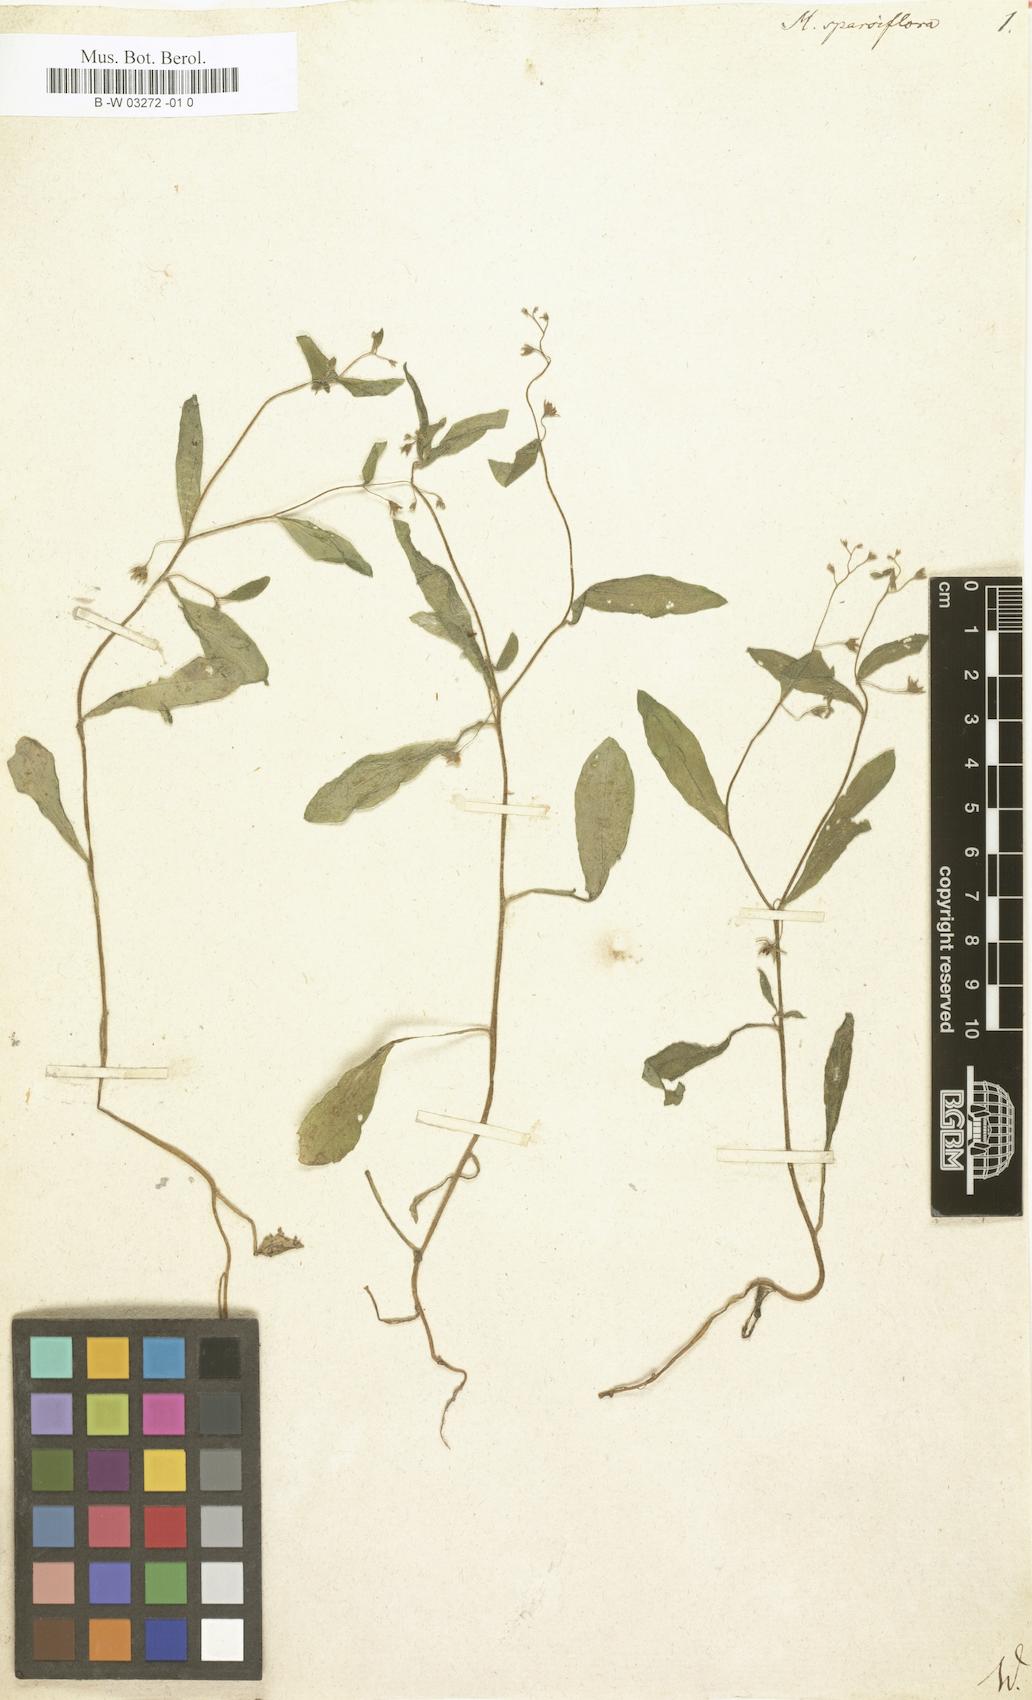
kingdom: Plantae
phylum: Tracheophyta
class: Magnoliopsida
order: Boraginales
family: Boraginaceae
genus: Myosotis
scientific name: Myosotis sparsiflora
